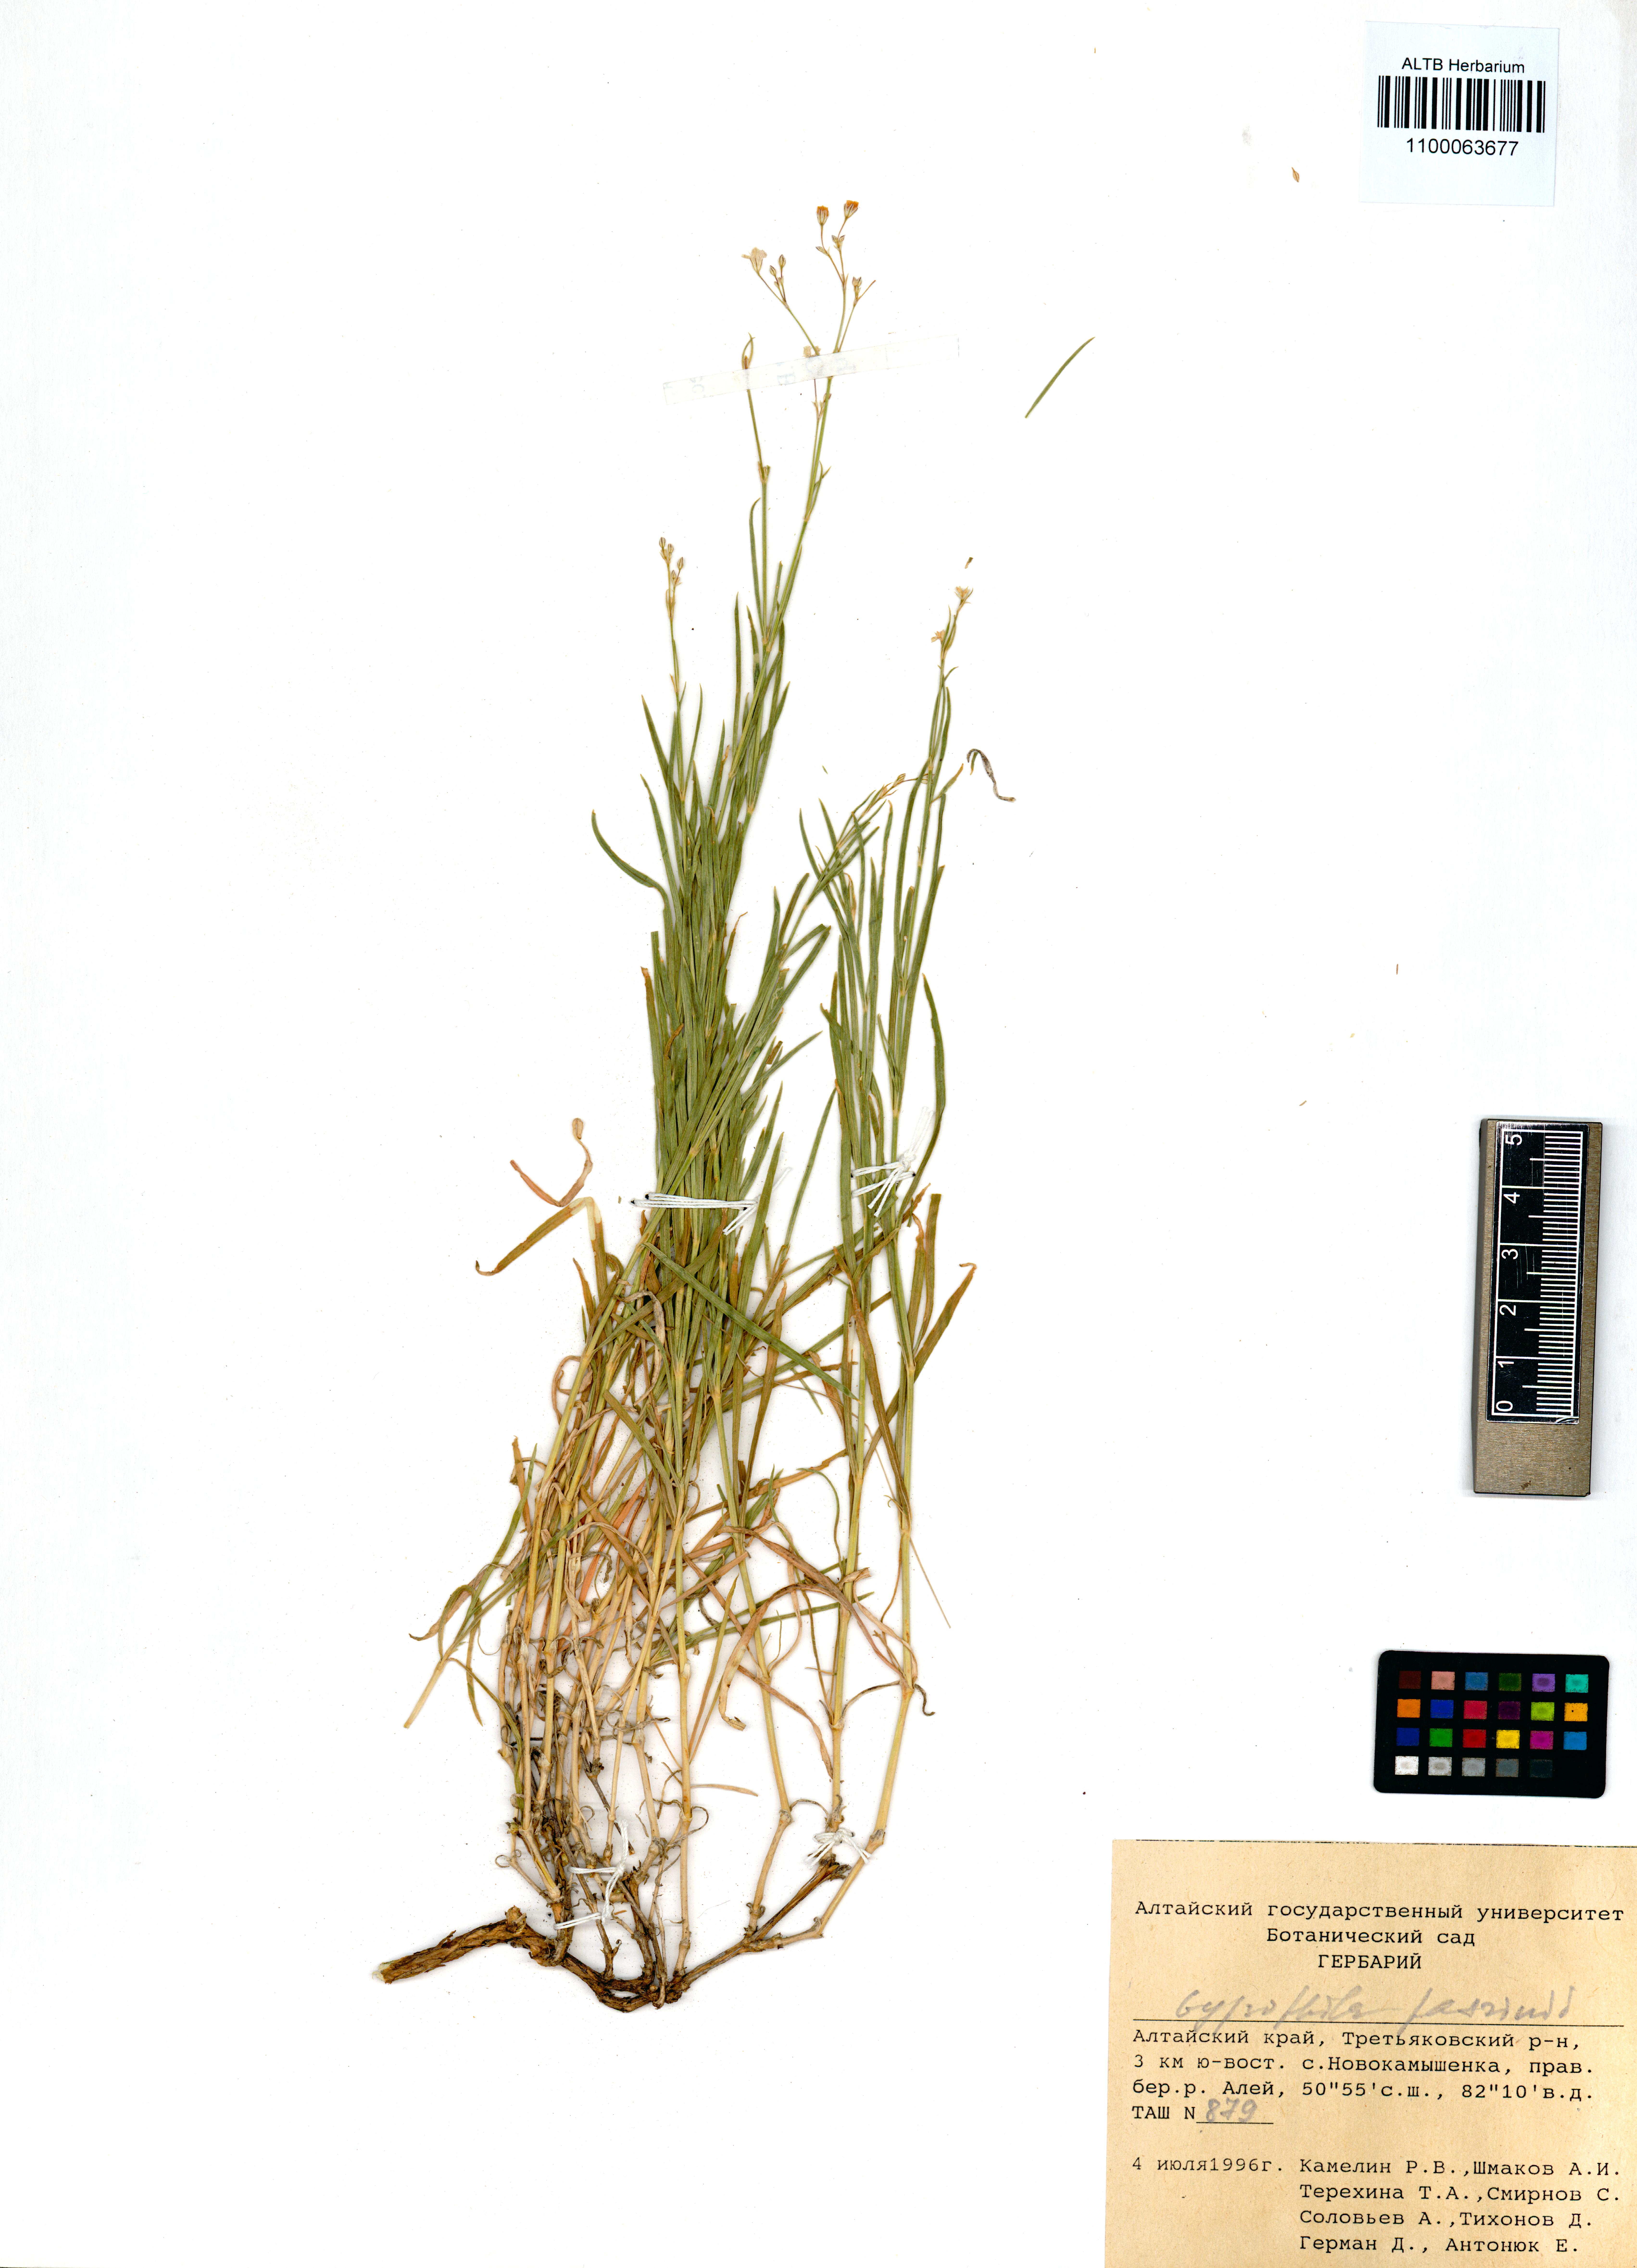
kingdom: Plantae
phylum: Tracheophyta
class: Magnoliopsida
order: Caryophyllales
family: Caryophyllaceae
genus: Gypsophila
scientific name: Gypsophila patrinii
